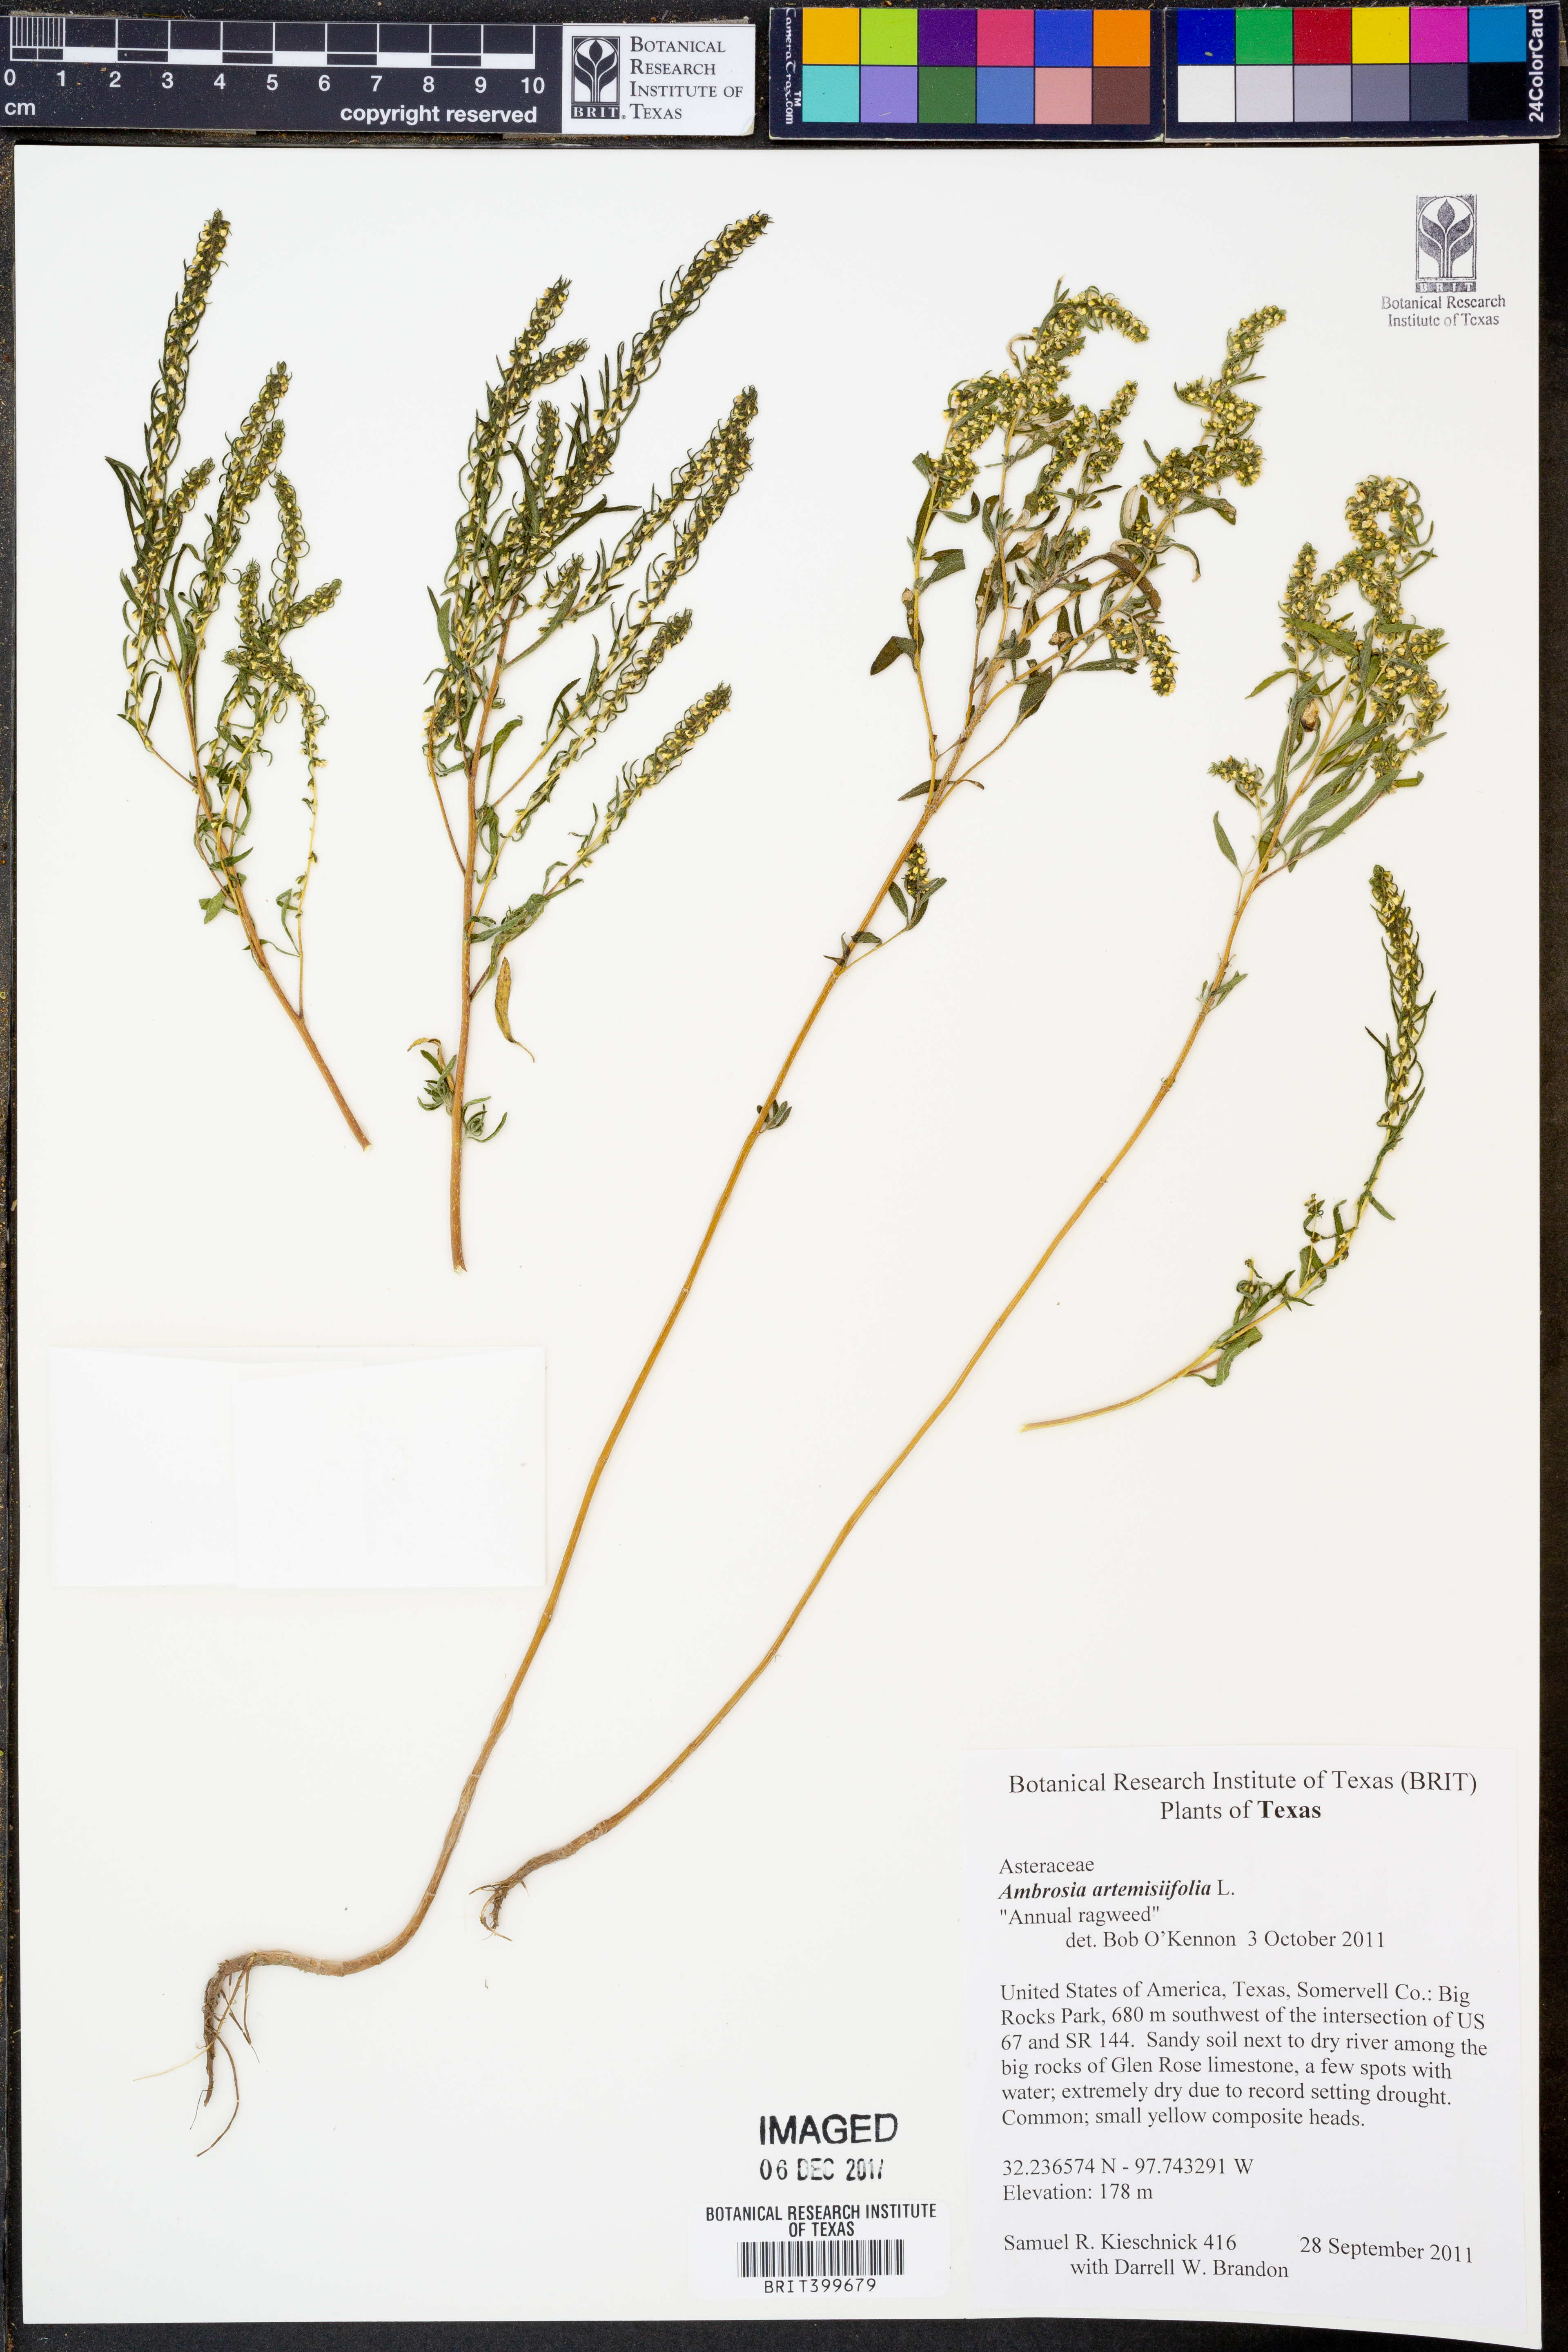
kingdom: Plantae
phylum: Tracheophyta
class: Magnoliopsida
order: Asterales
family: Asteraceae
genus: Ambrosia
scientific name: Ambrosia artemisiifolia
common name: Annual ragweed
